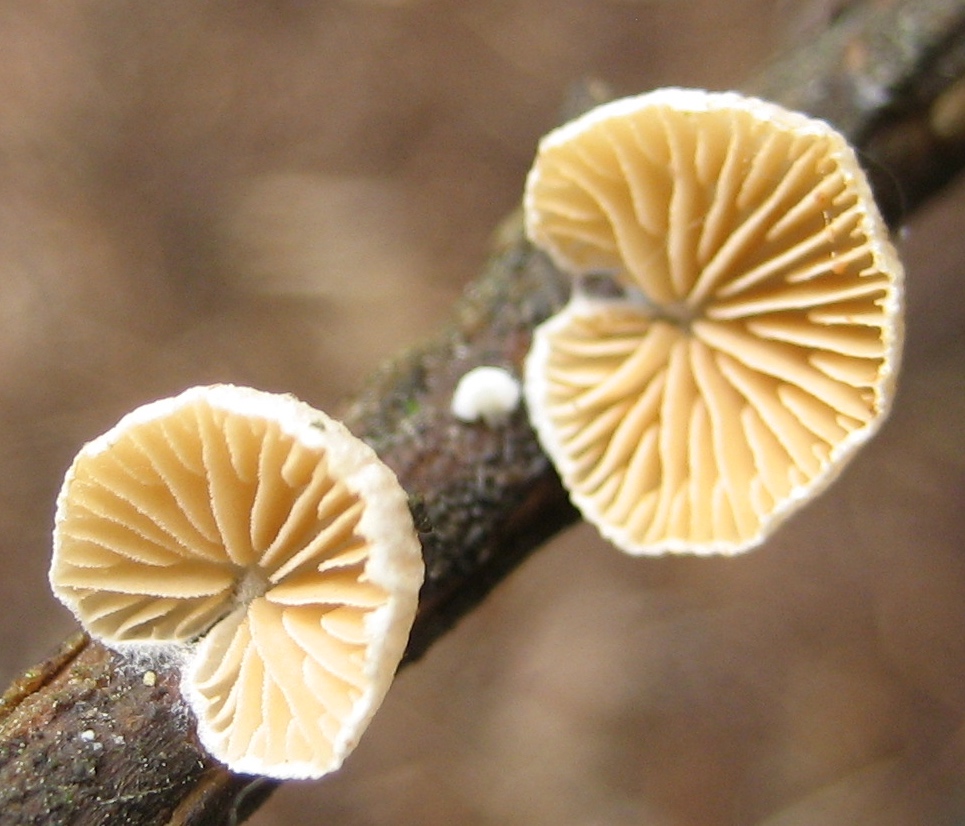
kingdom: Fungi
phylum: Basidiomycota
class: Agaricomycetes
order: Agaricales
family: Crepidotaceae
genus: Crepidotus
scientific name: Crepidotus
